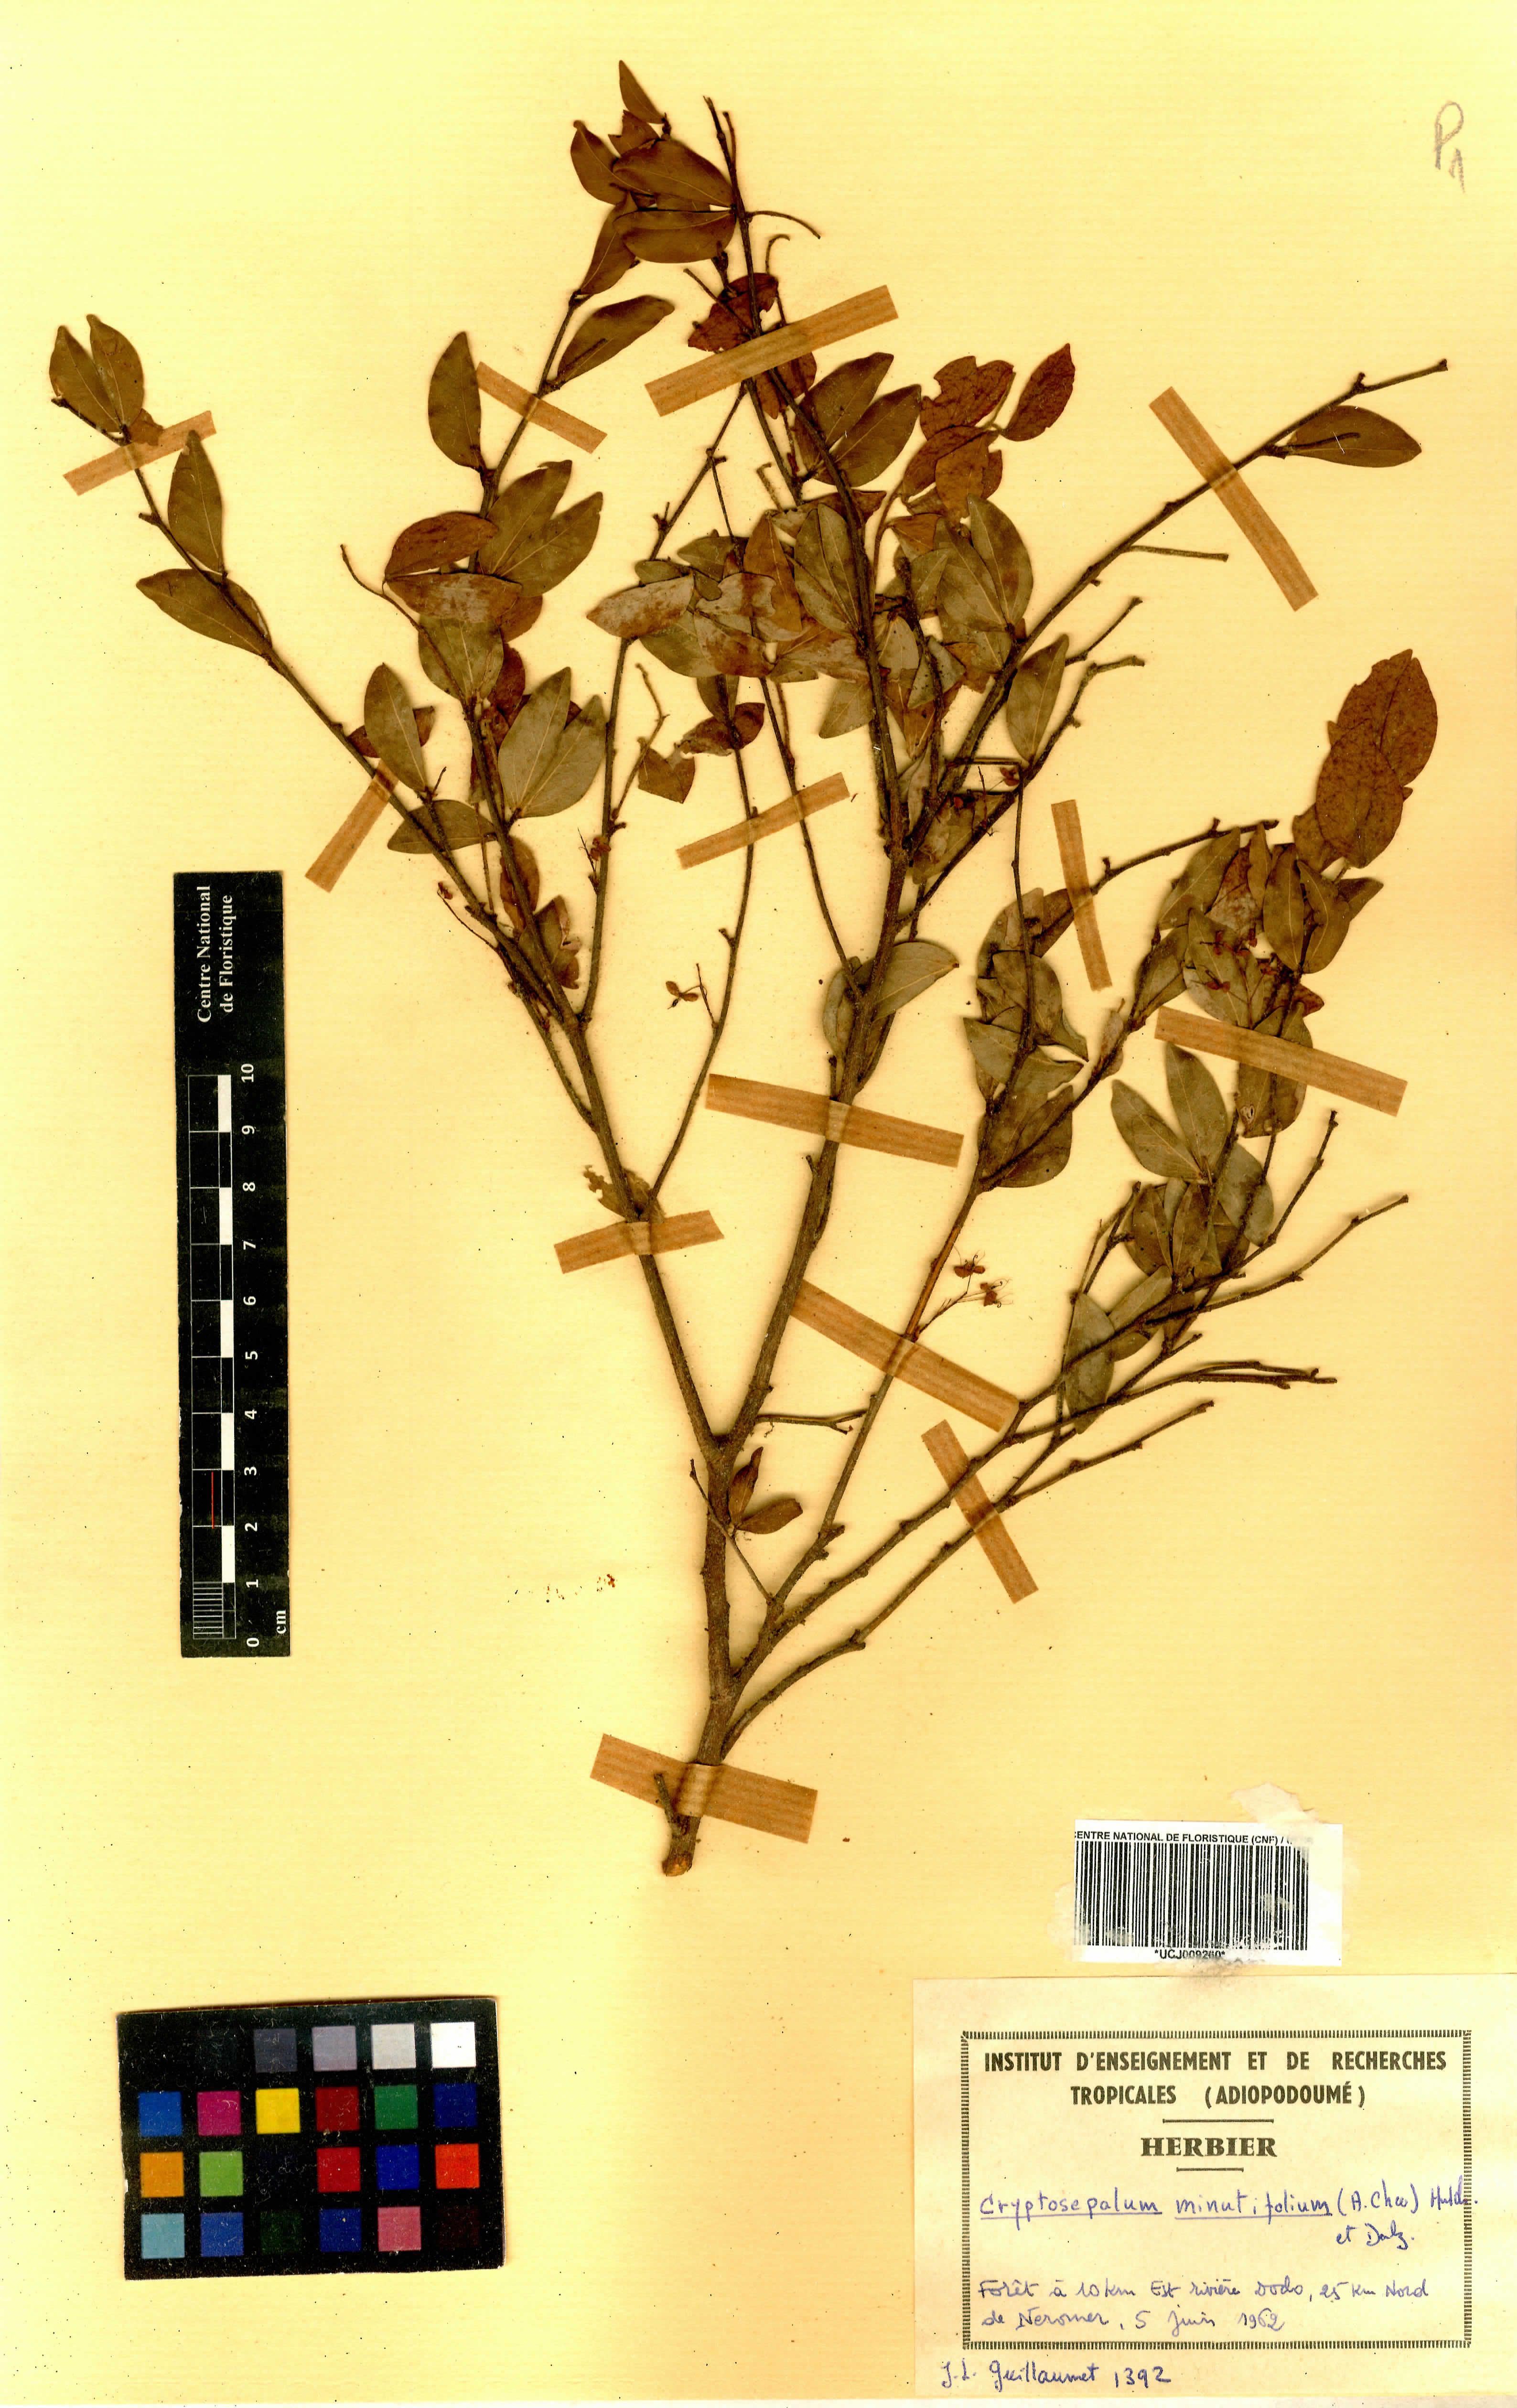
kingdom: Plantae
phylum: Tracheophyta
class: Magnoliopsida
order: Fabales
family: Fabaceae
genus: Cryptosepalum
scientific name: Cryptosepalum minutifolium
